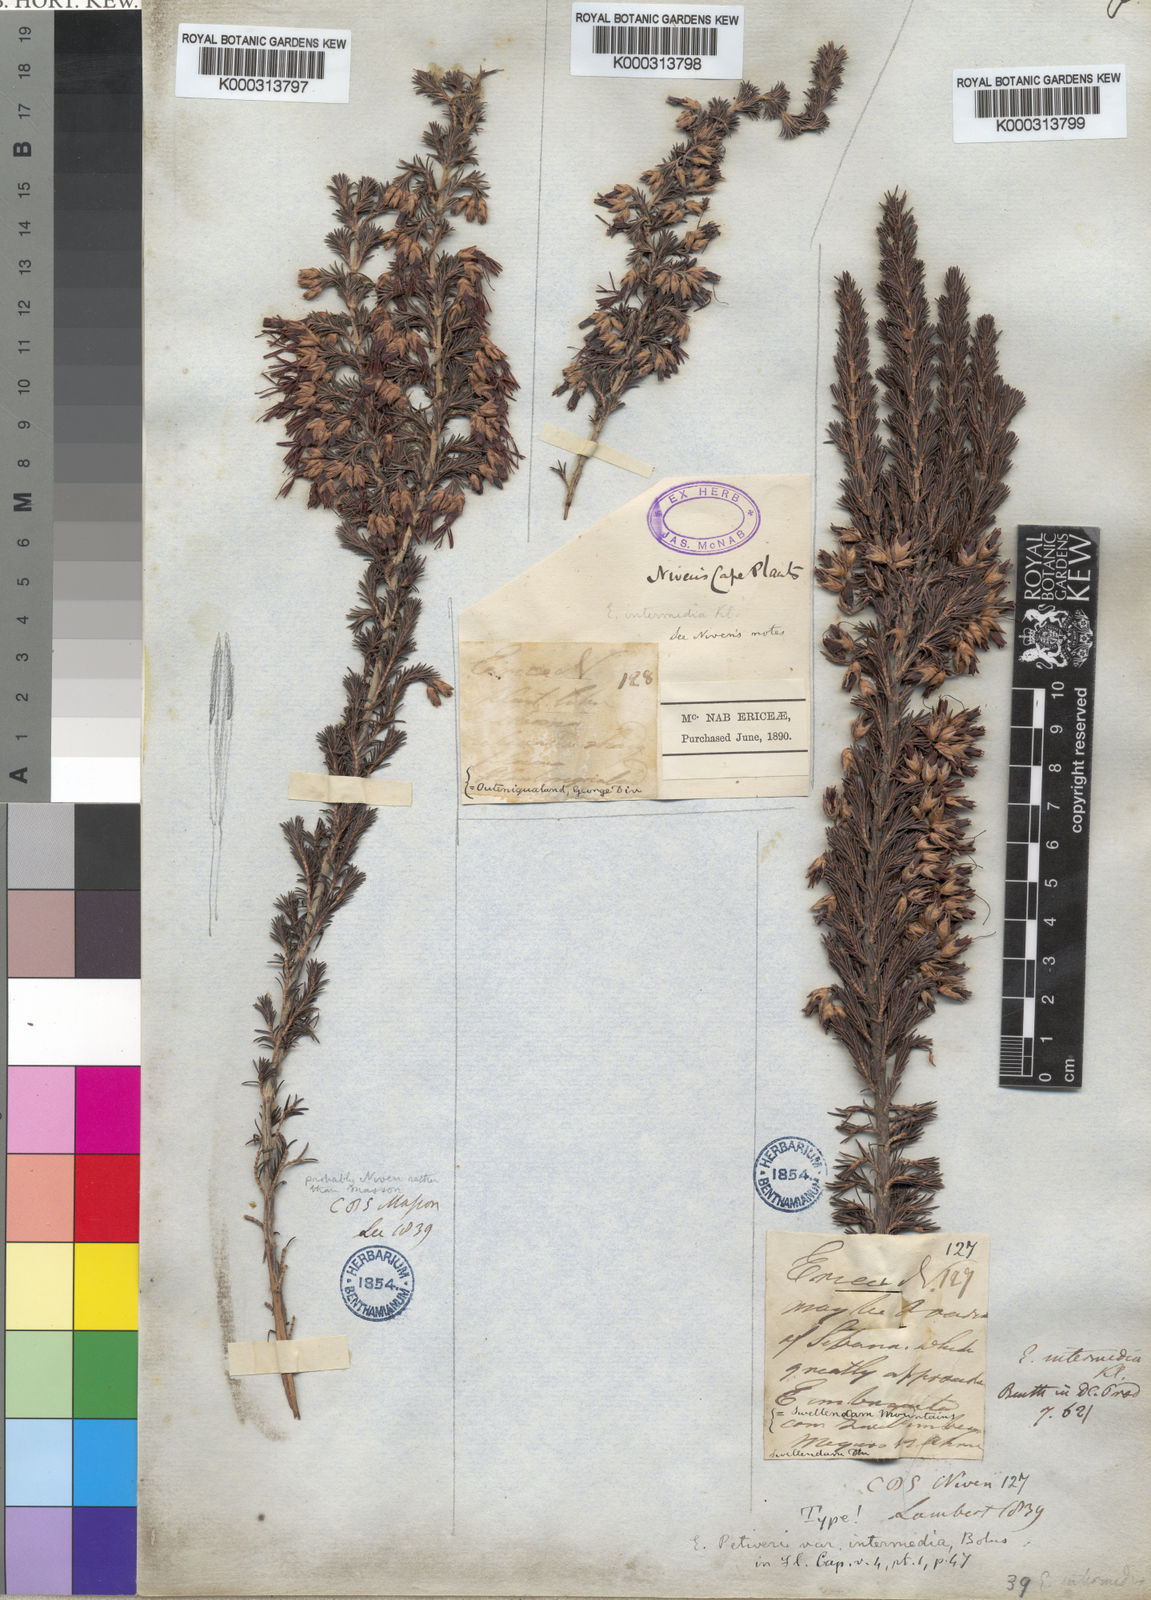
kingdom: Plantae
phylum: Tracheophyta
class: Magnoliopsida
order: Ericales
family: Ericaceae
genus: Erica
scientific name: Erica coccinea
